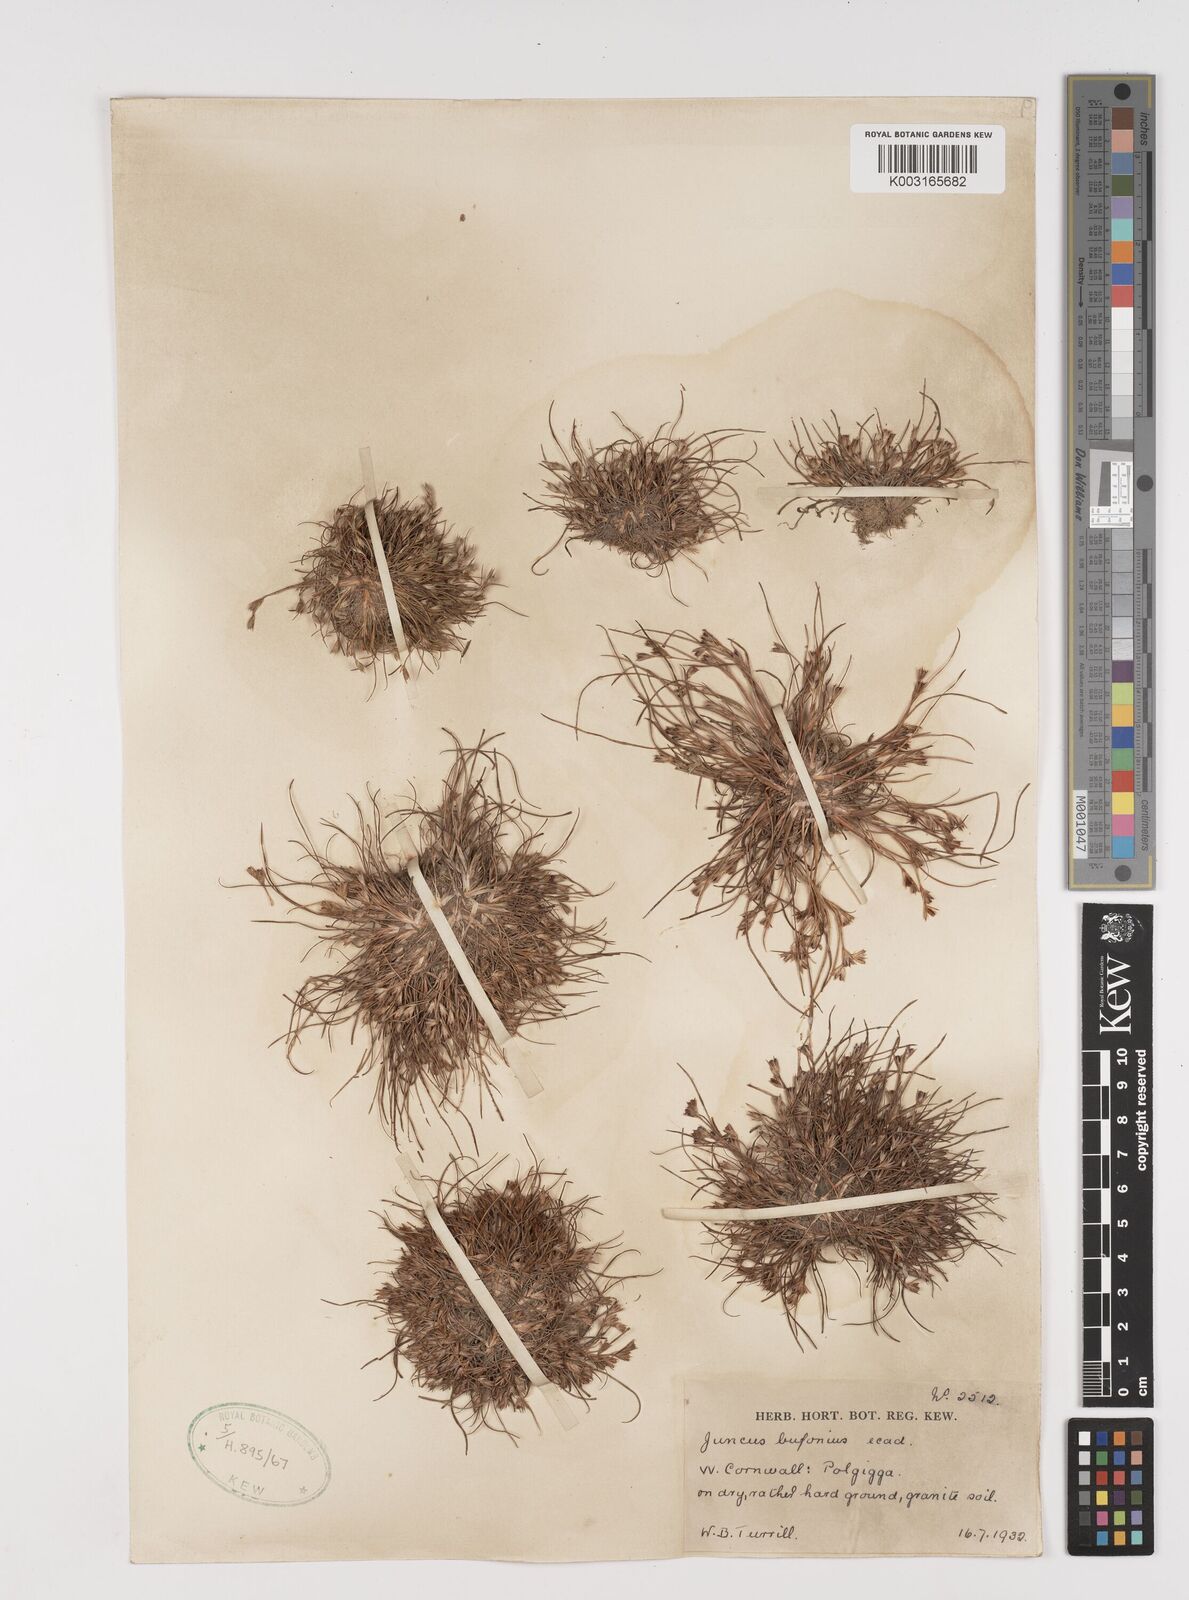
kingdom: Plantae
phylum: Tracheophyta
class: Liliopsida
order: Poales
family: Juncaceae
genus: Juncus
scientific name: Juncus bufonius
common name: Toad rush
